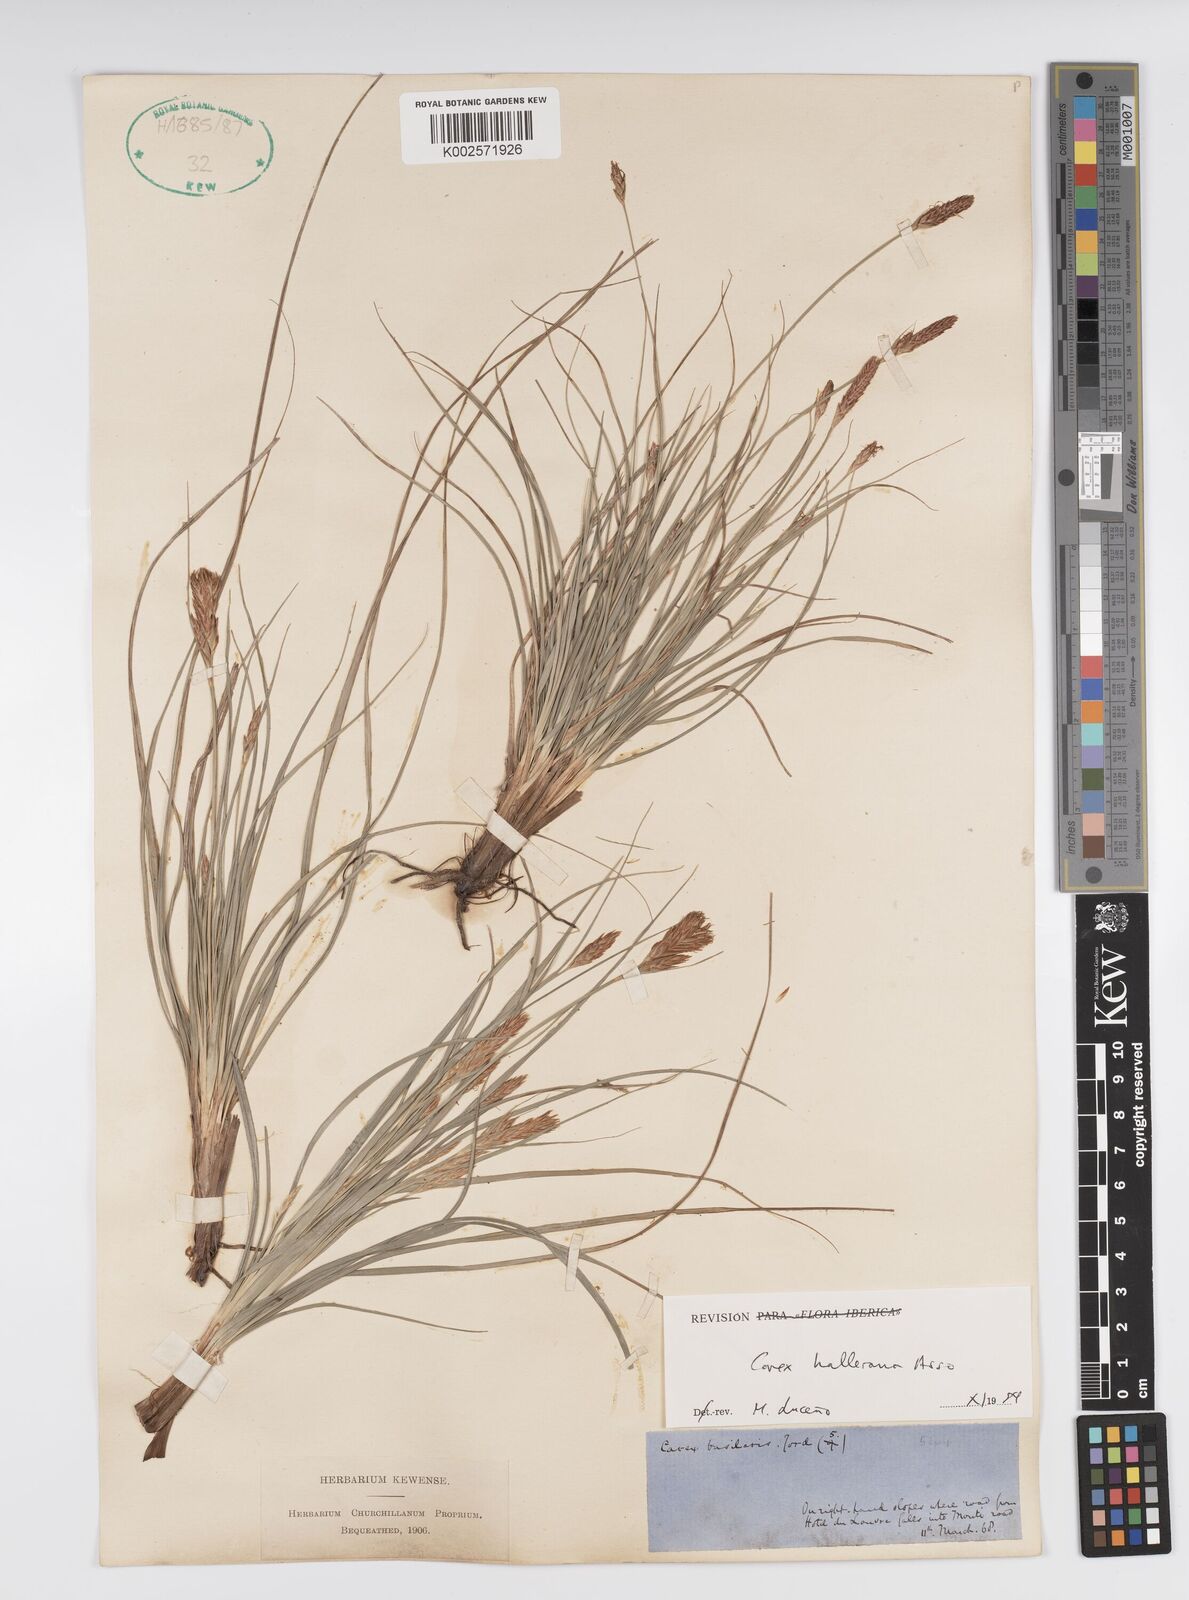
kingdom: Plantae
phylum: Tracheophyta
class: Liliopsida
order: Poales
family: Cyperaceae
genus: Carex
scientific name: Carex halleriana
